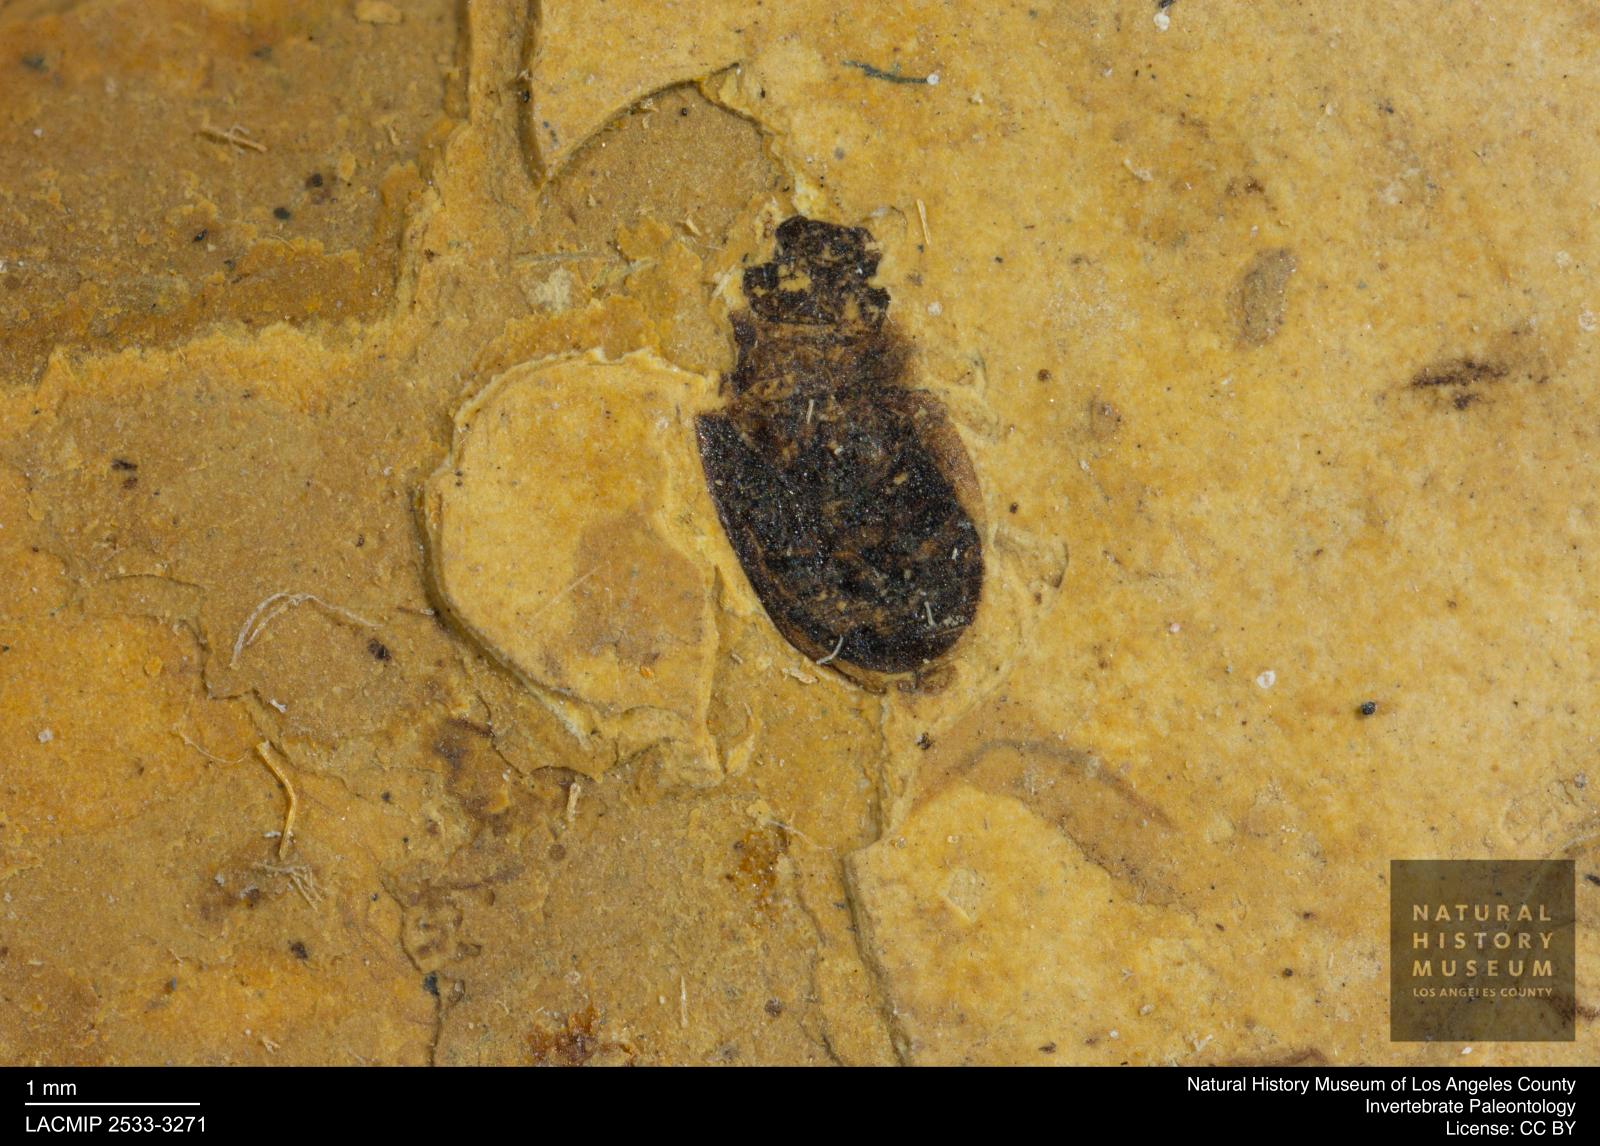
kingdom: Animalia
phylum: Arthropoda
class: Insecta
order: Coleoptera
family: Hydrophilidae
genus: Paracymus
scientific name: Paracymus excitatus
